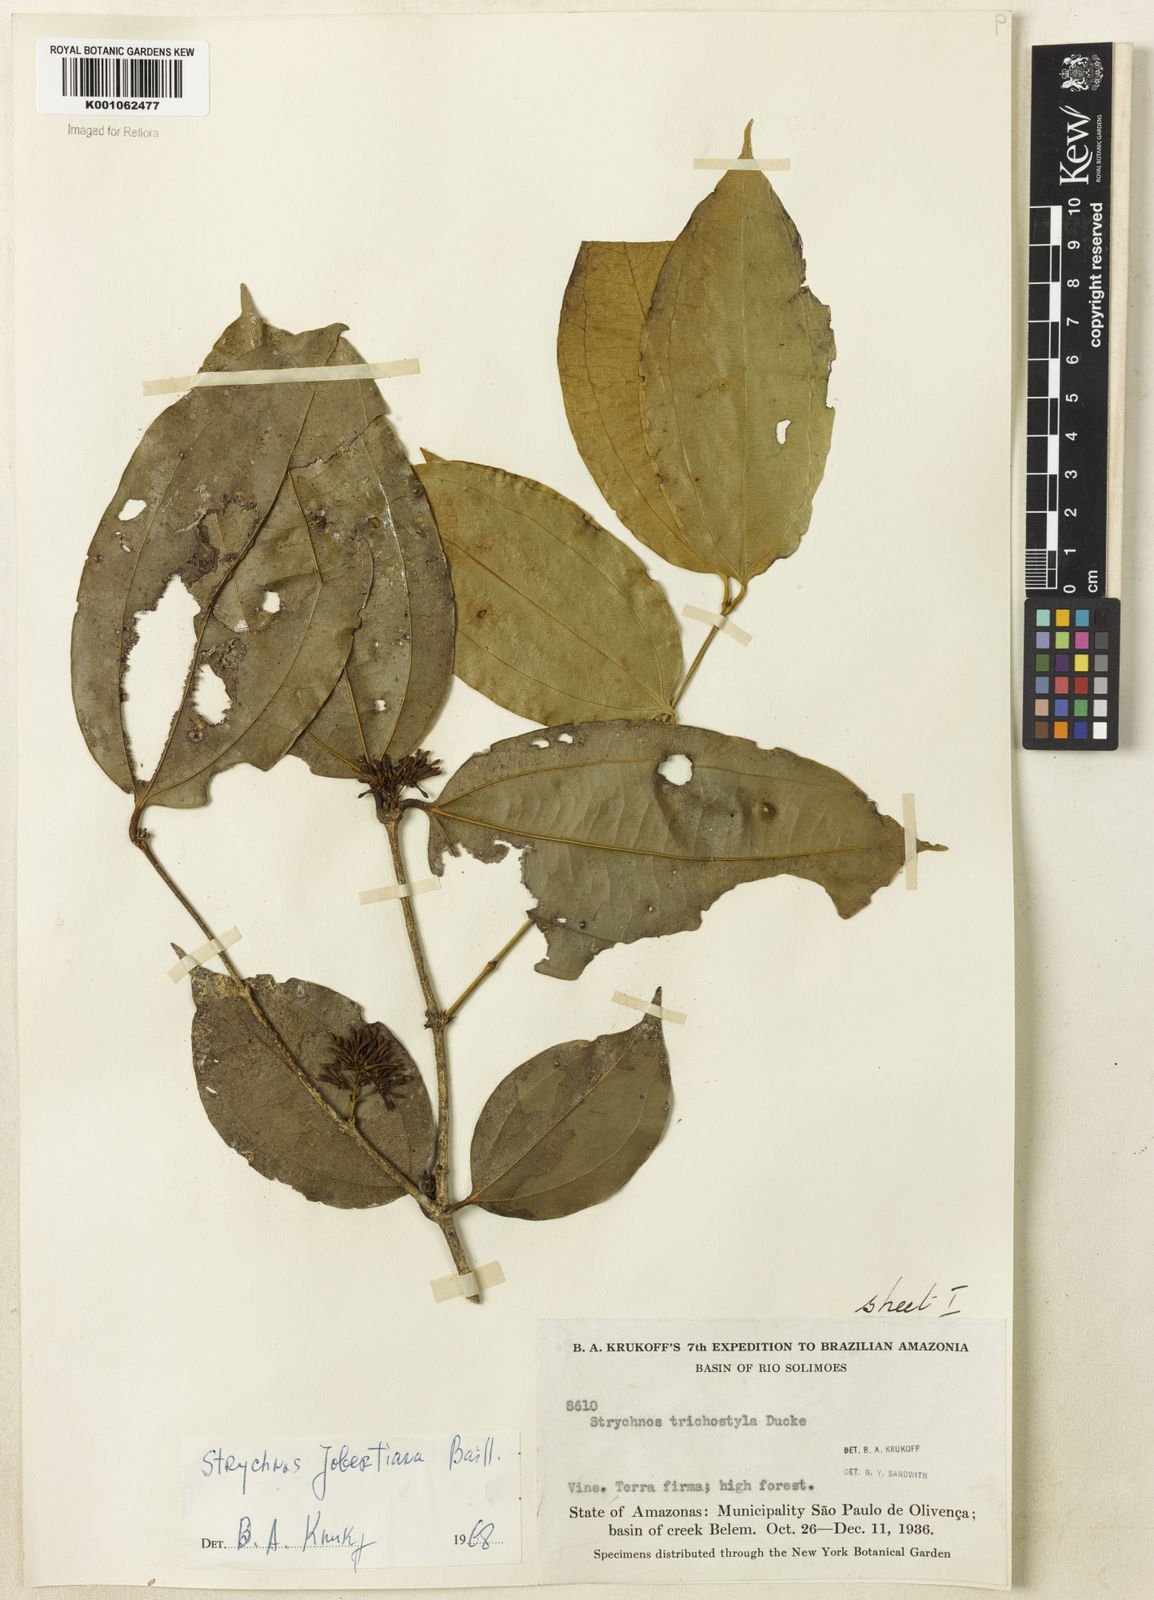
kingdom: Plantae
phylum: Tracheophyta
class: Magnoliopsida
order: Gentianales
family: Loganiaceae
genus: Strychnos
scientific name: Strychnos jobertiana
